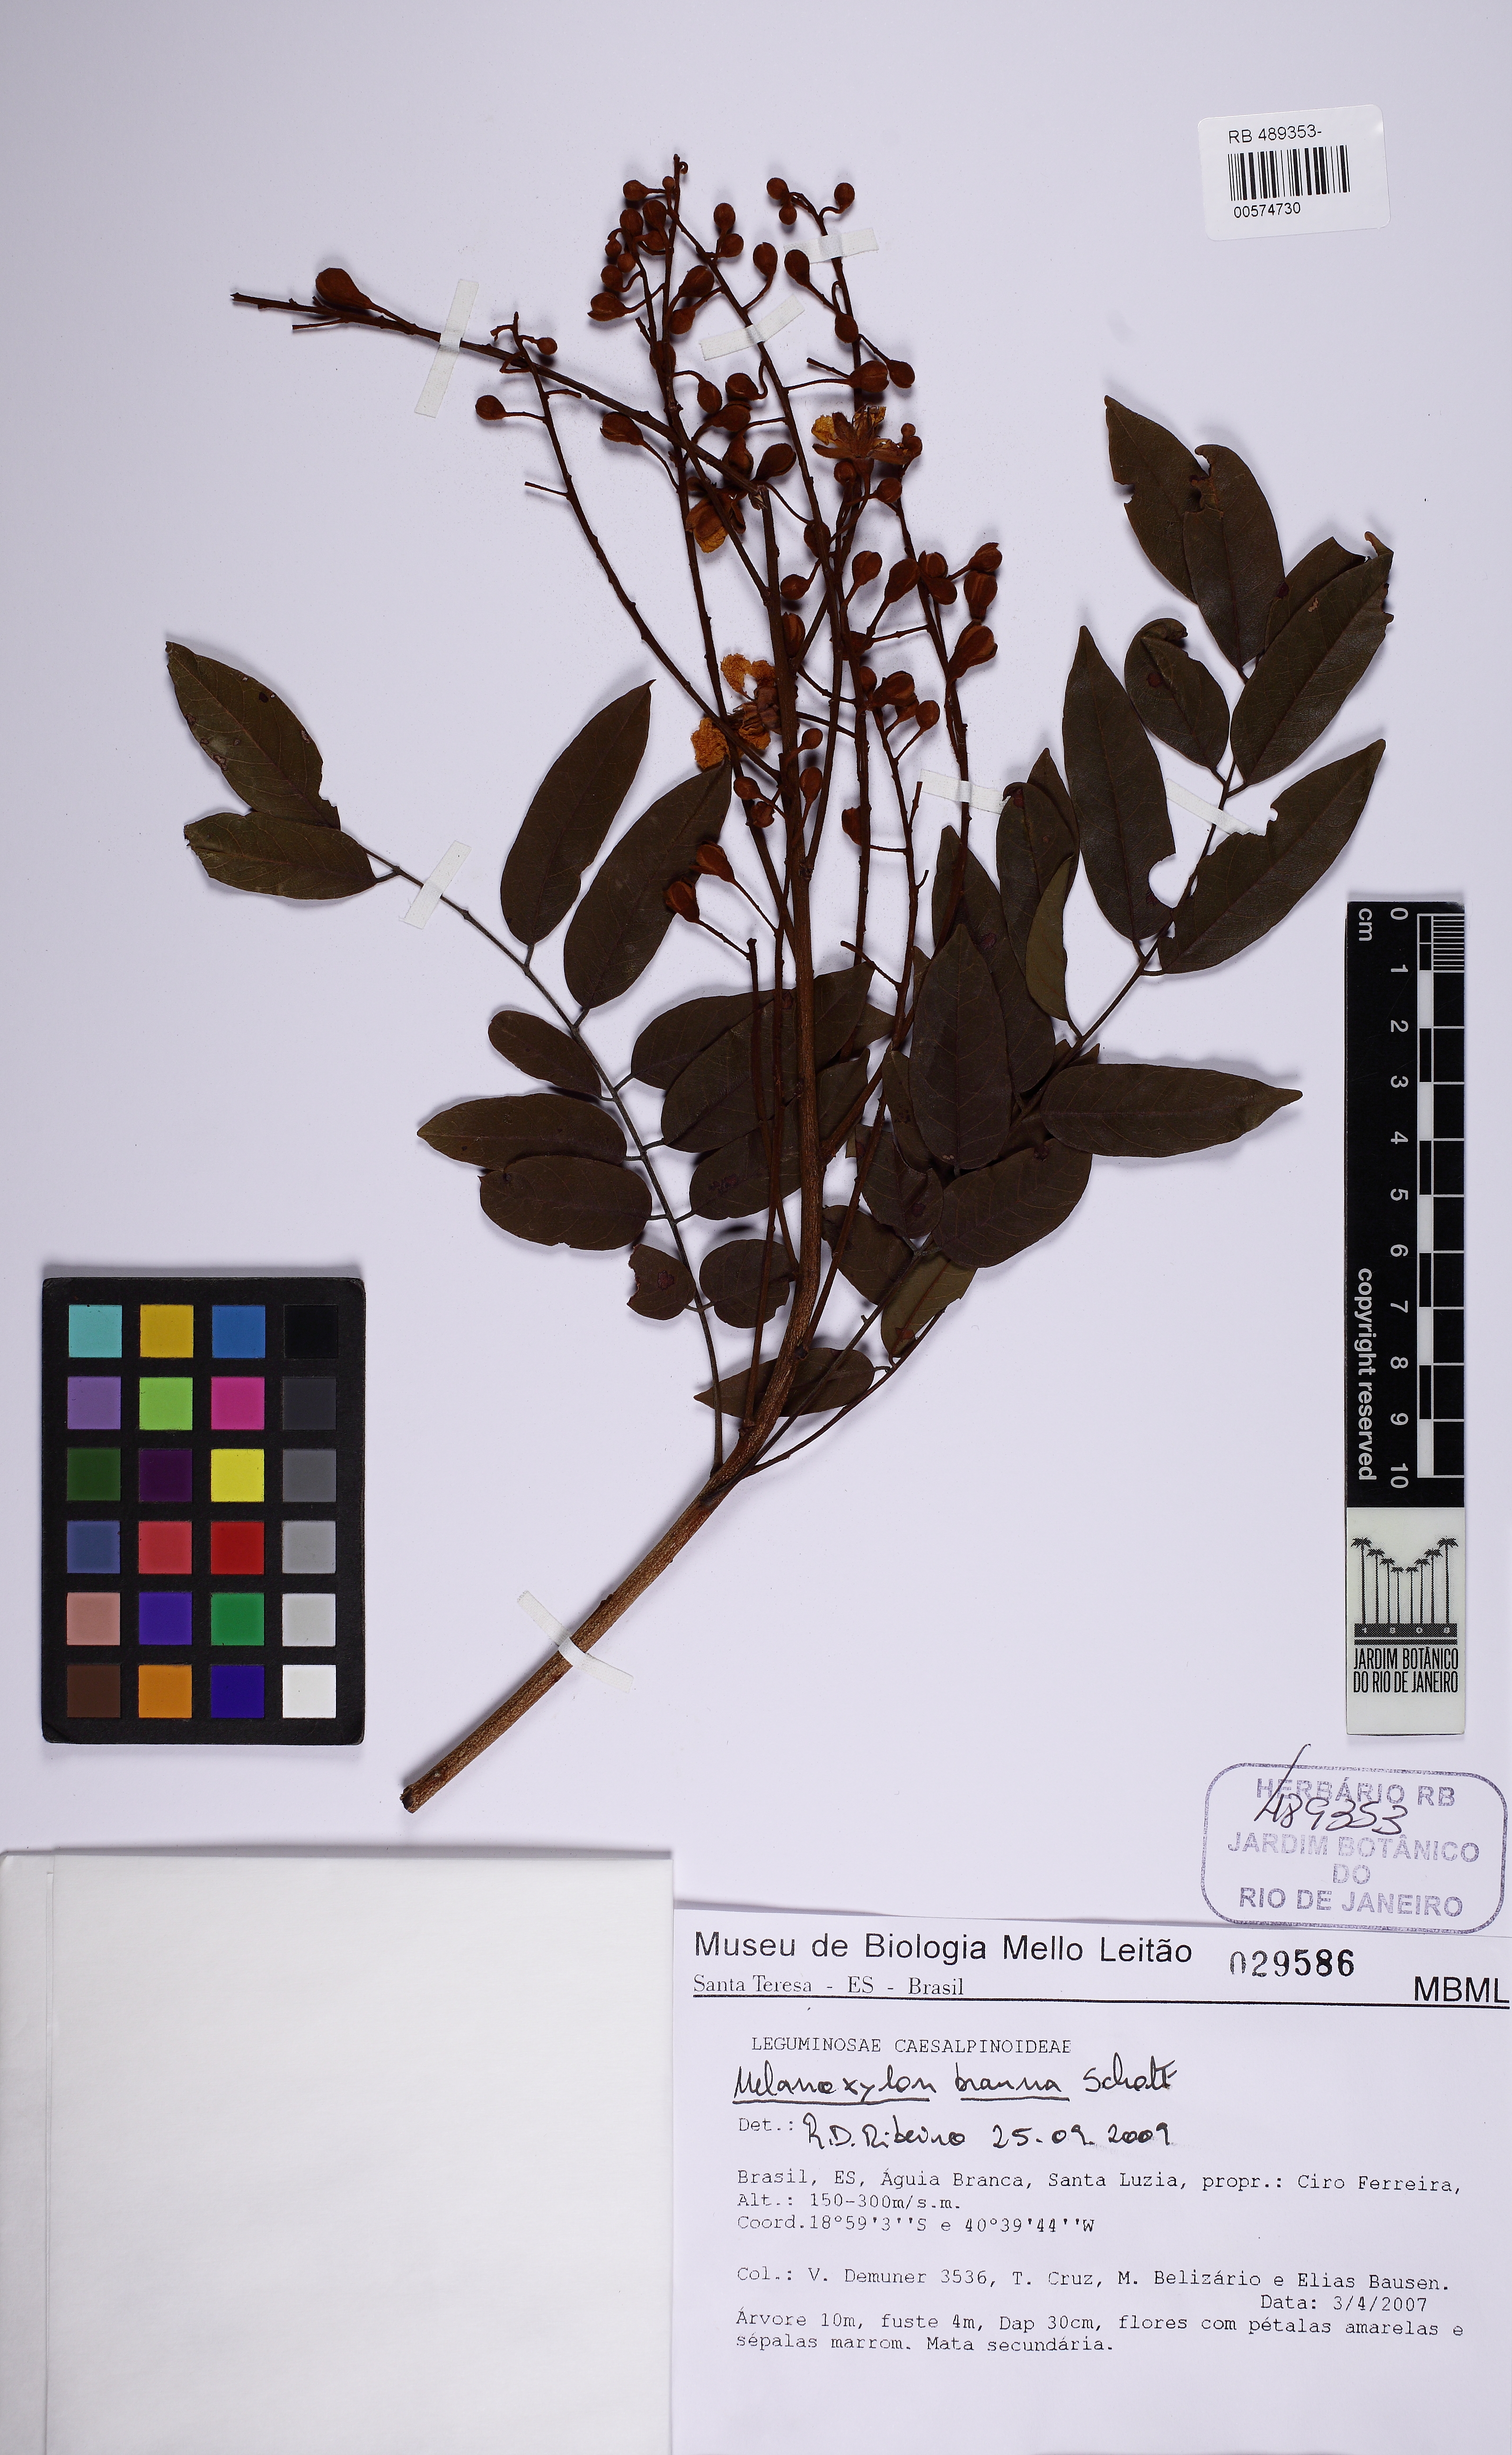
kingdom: Plantae
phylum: Tracheophyta
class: Magnoliopsida
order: Fabales
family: Fabaceae
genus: Melanoxylon
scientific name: Melanoxylon brauna
